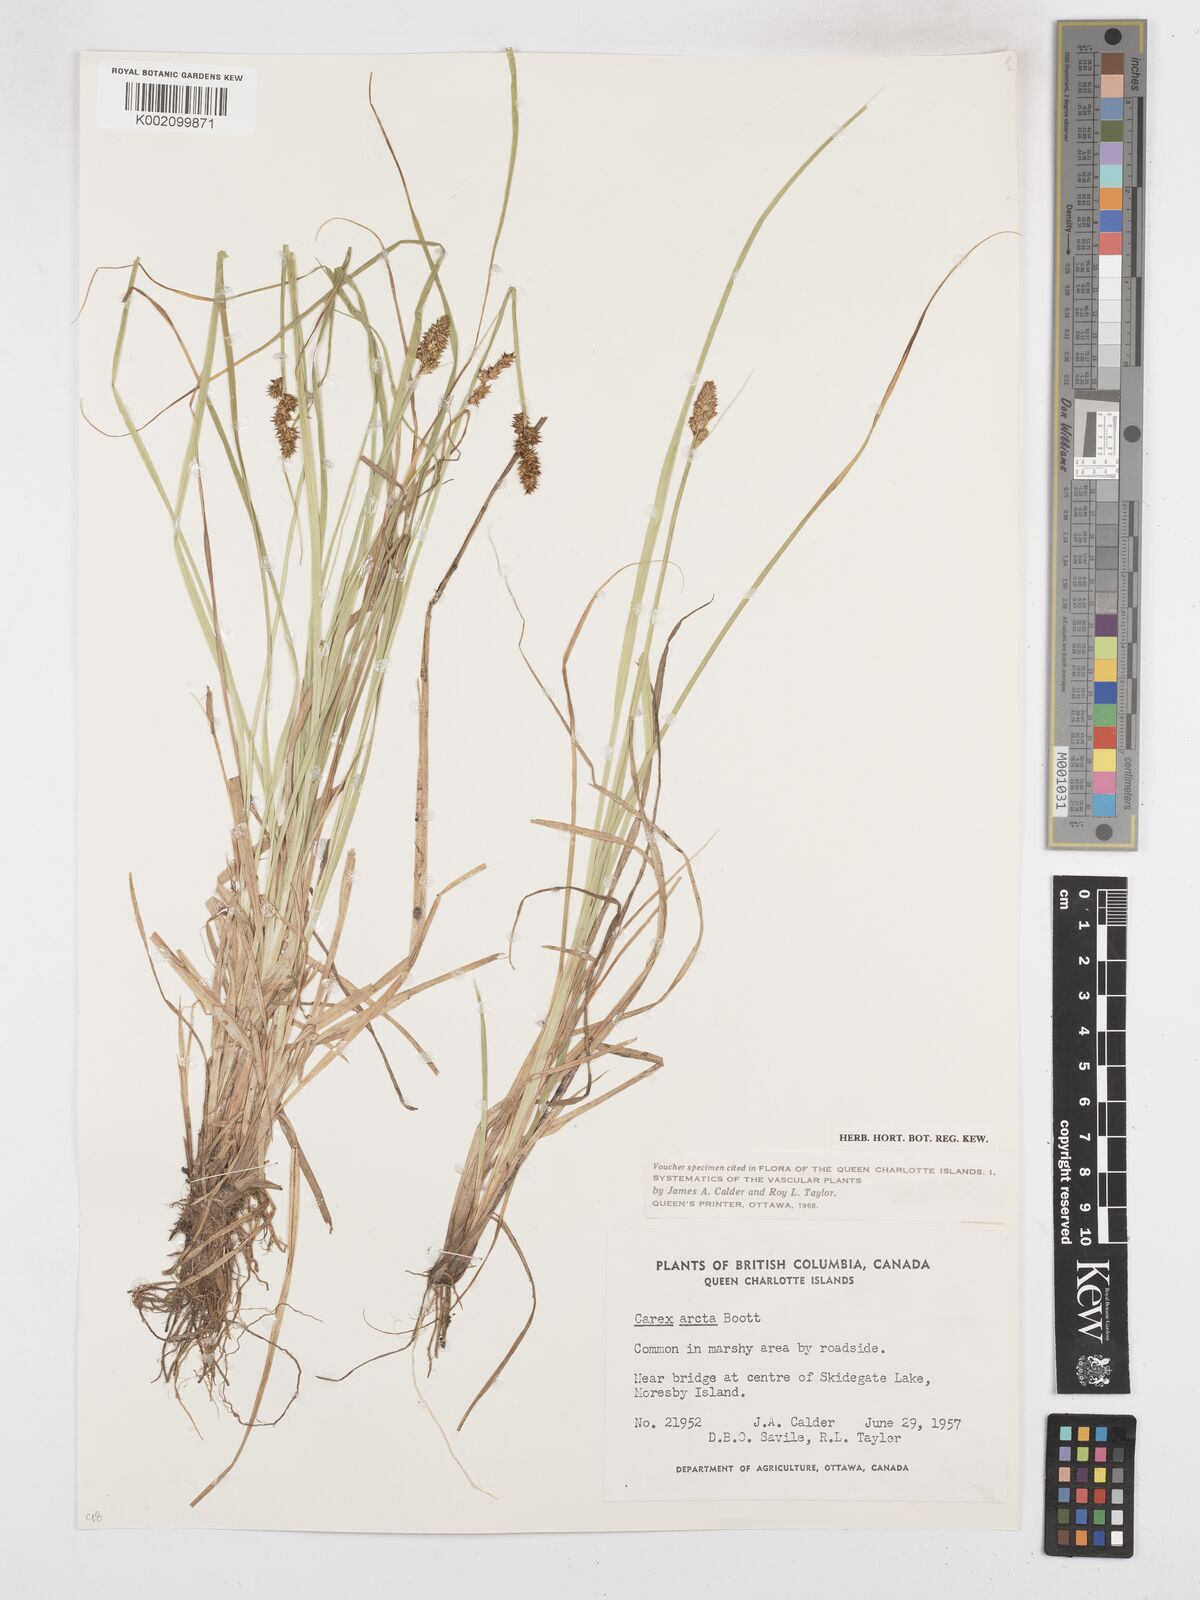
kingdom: Plantae
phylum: Tracheophyta
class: Liliopsida
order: Poales
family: Cyperaceae
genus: Carex
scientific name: Carex arcta
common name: Bear sedge
